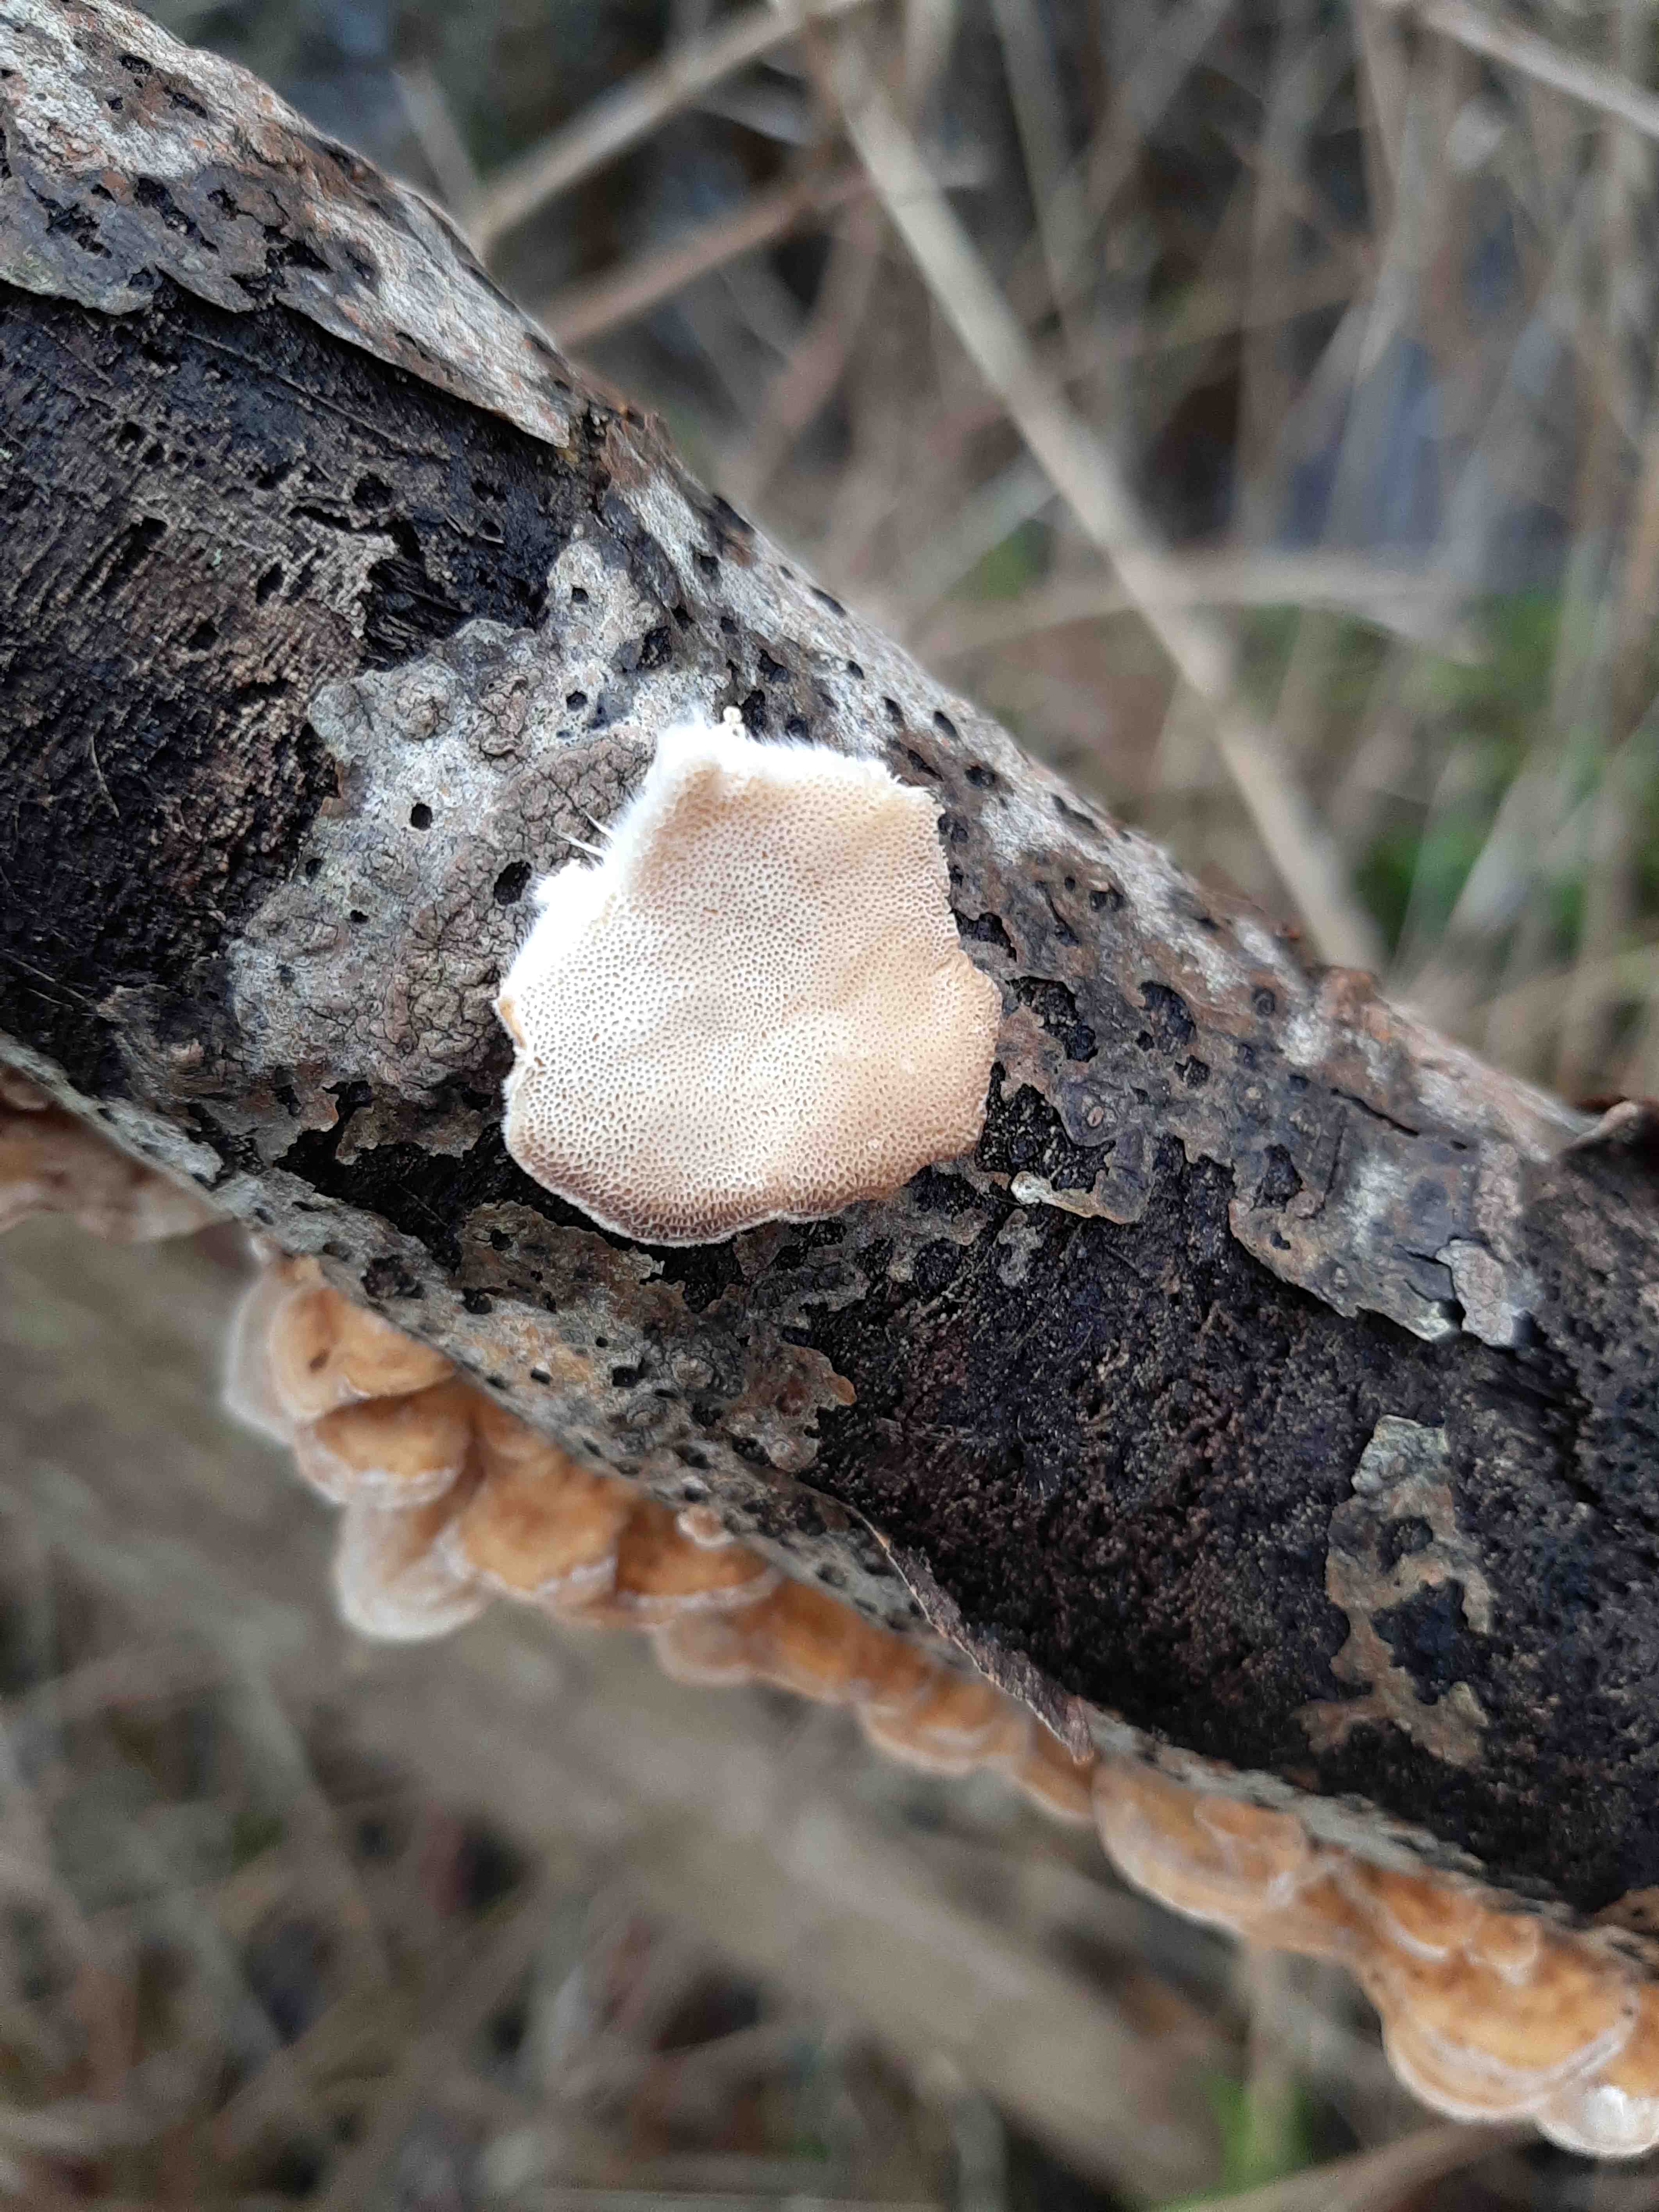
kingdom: Fungi
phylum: Basidiomycota
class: Agaricomycetes
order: Polyporales
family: Polyporaceae
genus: Trametes
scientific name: Trametes ochracea
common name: bæltet læderporesvamp
